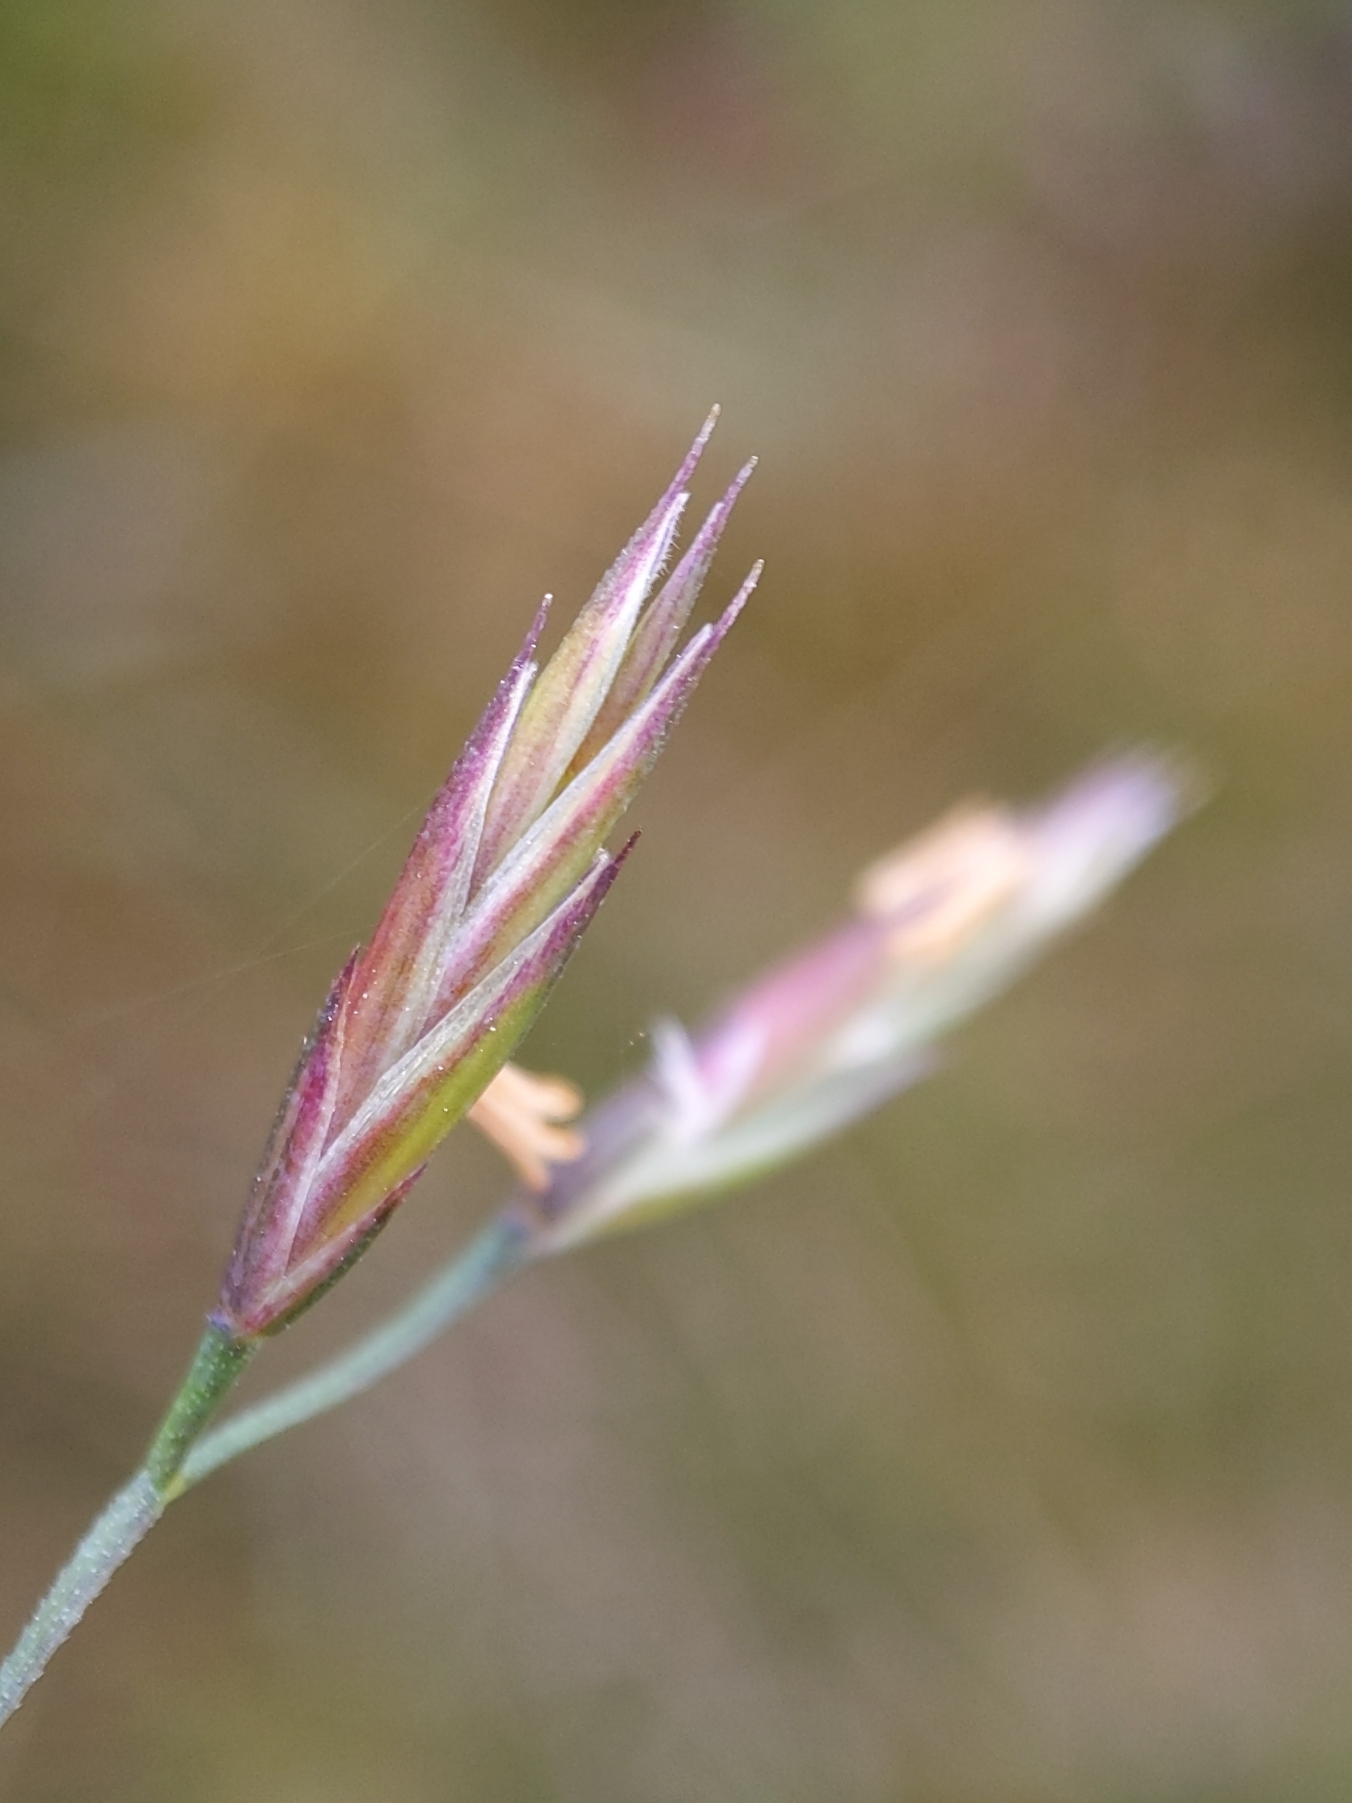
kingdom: Plantae
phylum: Tracheophyta
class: Liliopsida
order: Poales
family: Poaceae
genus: Festuca
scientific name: Festuca rubra
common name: Rød svingel
